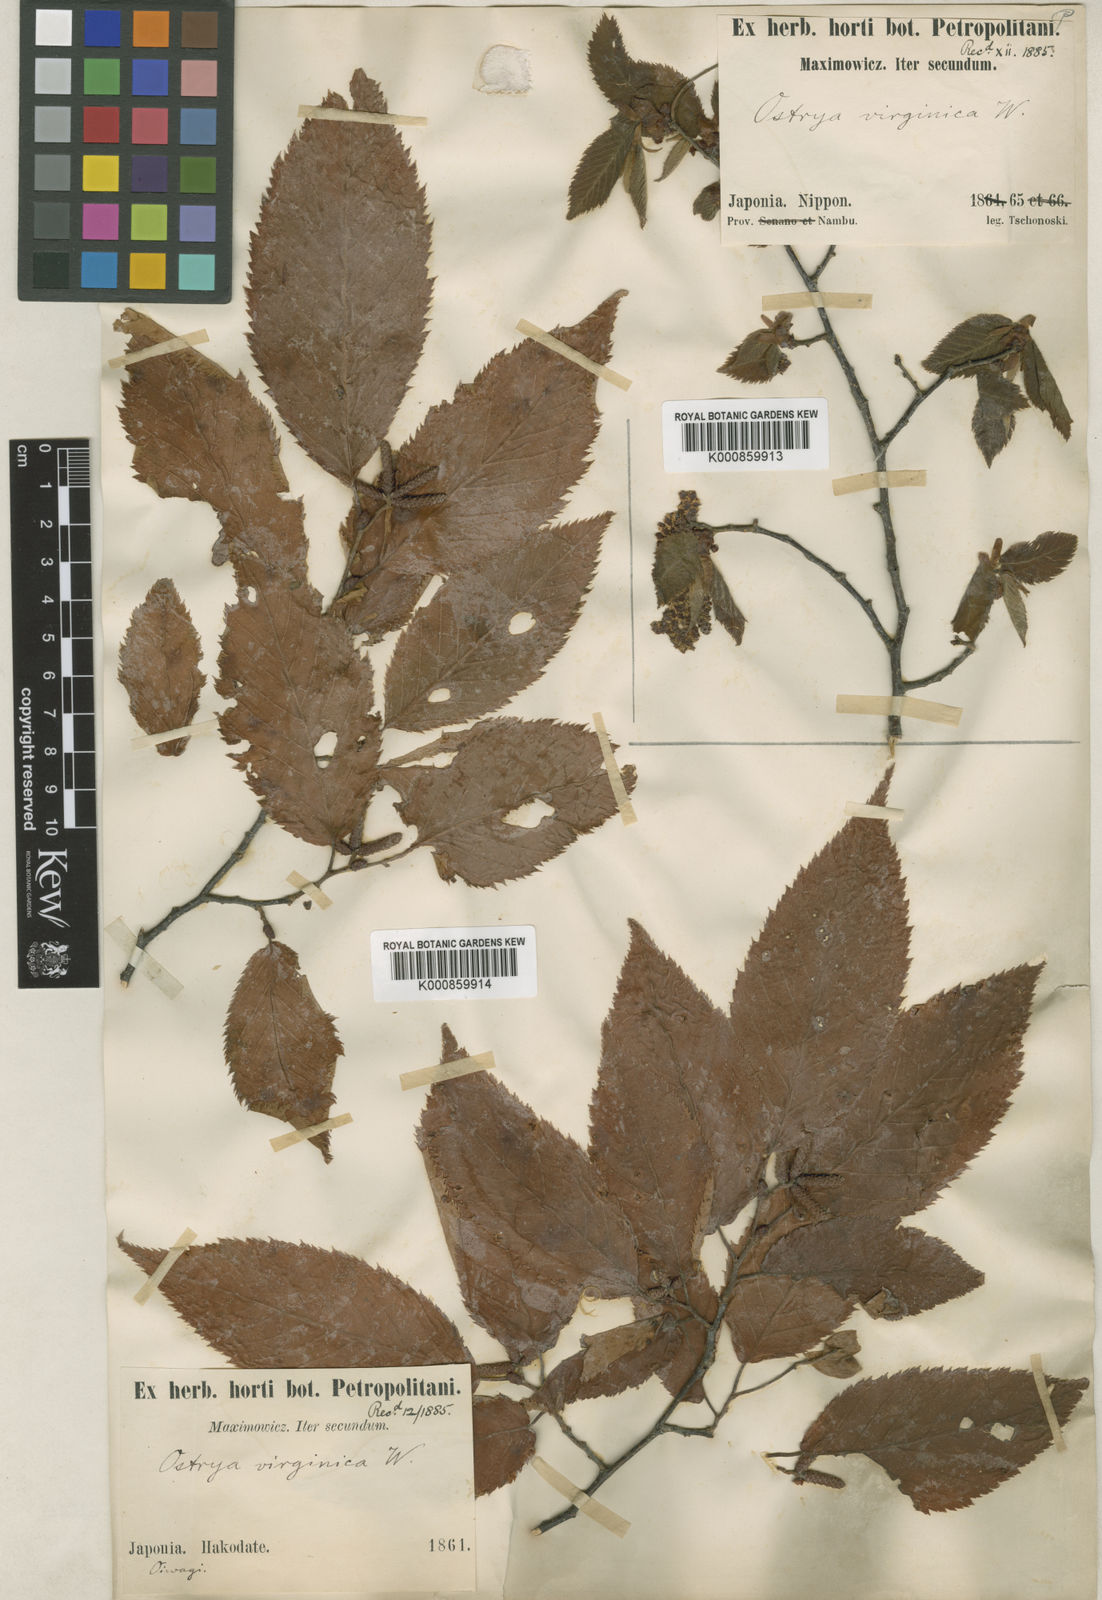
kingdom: Plantae
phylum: Tracheophyta
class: Magnoliopsida
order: Fagales
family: Betulaceae
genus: Ostrya
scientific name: Ostrya japonica
